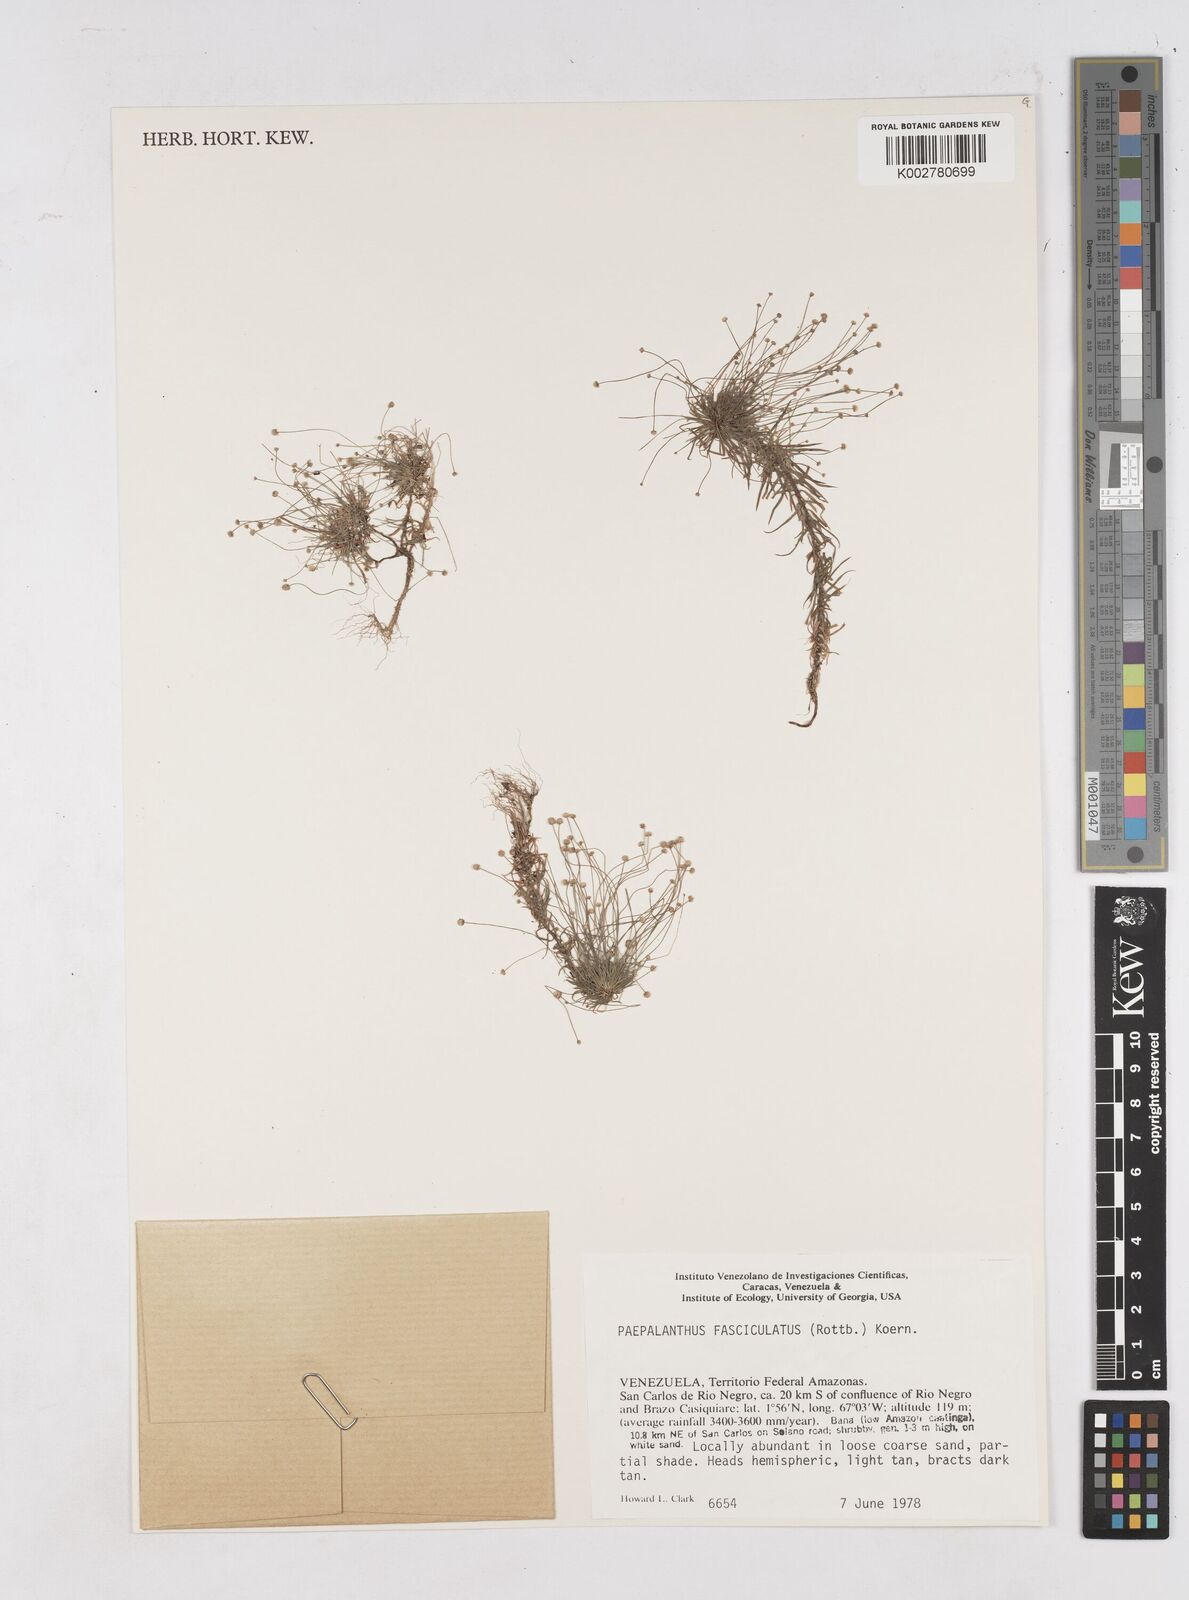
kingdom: Plantae
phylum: Tracheophyta
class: Liliopsida
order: Poales
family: Eriocaulaceae
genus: Paepalanthus
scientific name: Paepalanthus fasciculatus
